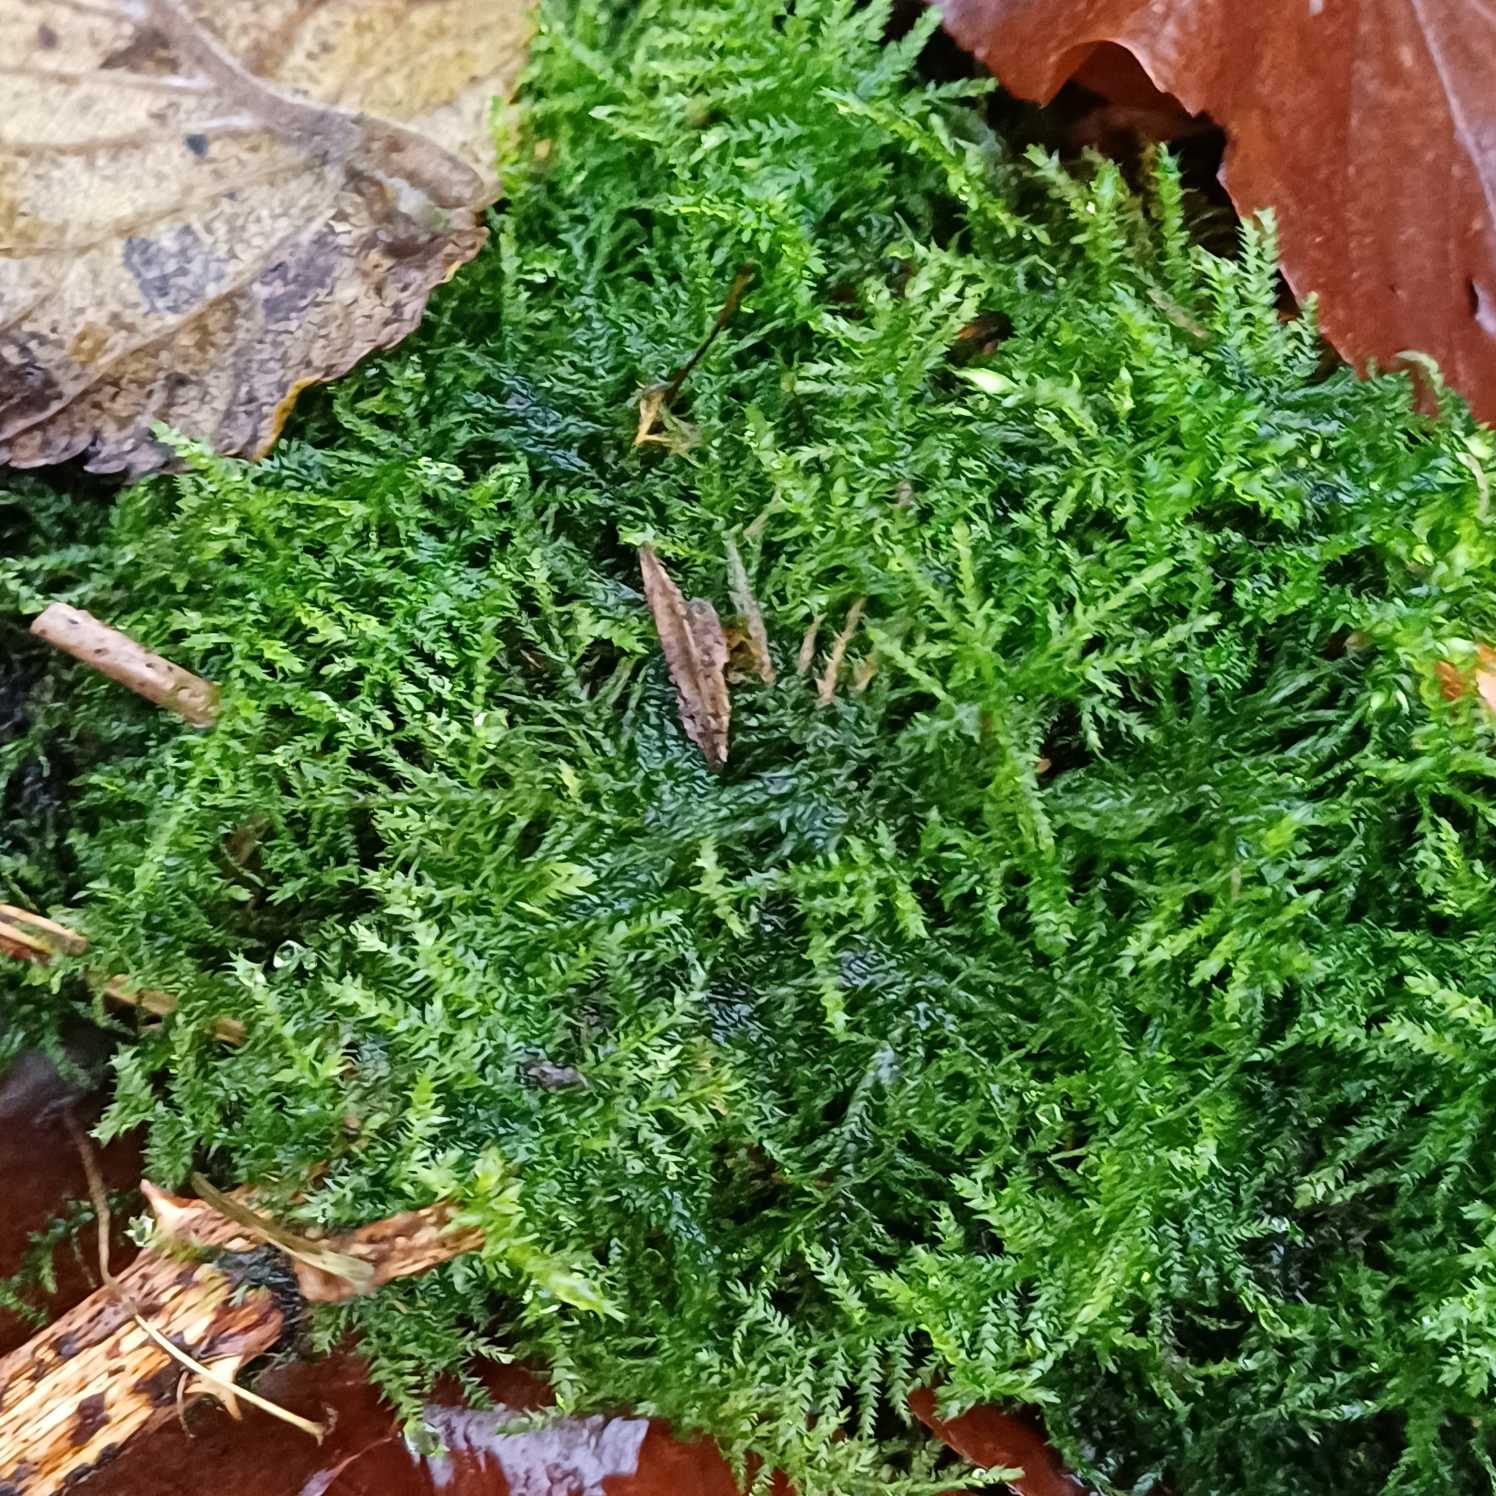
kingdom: Plantae
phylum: Bryophyta
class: Bryopsida
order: Hypnales
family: Brachytheciaceae
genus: Kindbergia
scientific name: Kindbergia praelonga
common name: Forskelligbladet vortetand
